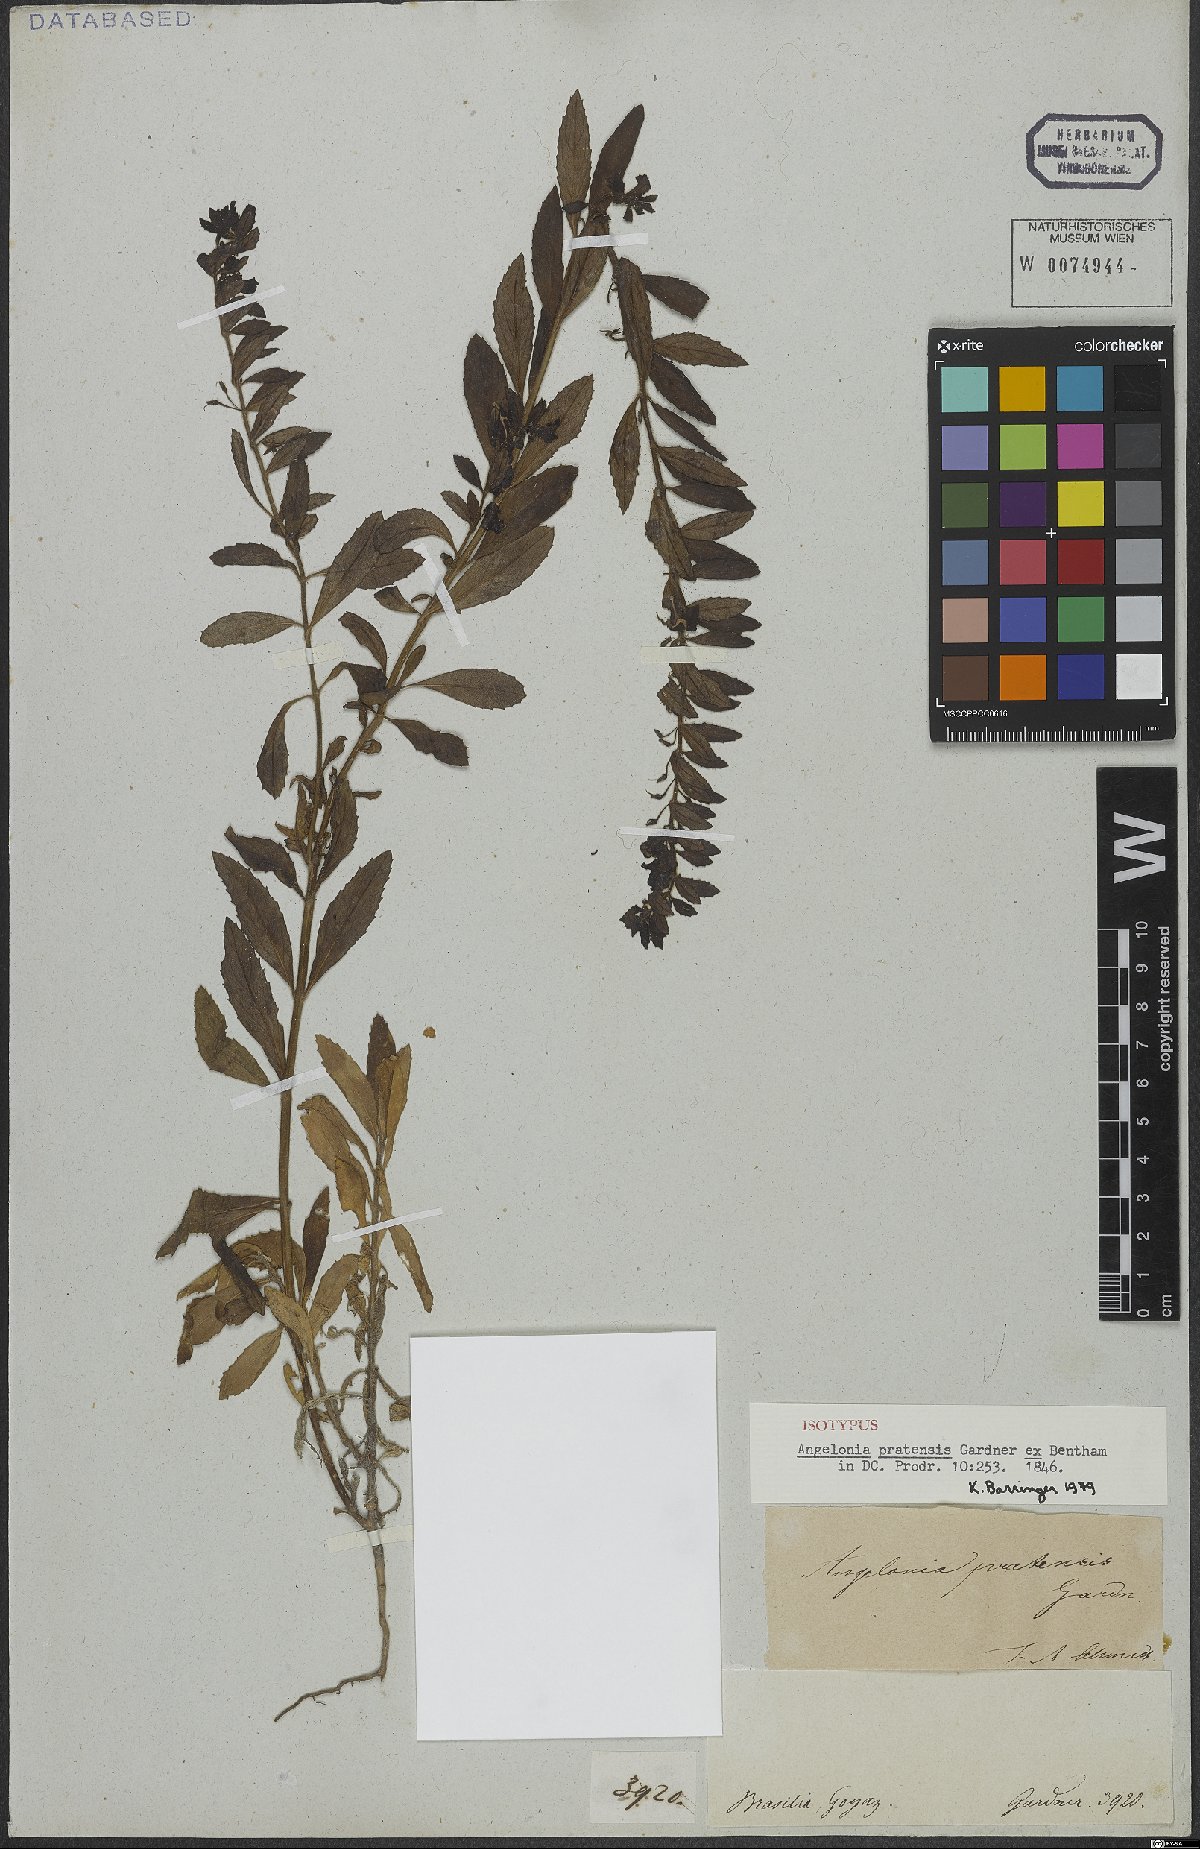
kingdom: Plantae
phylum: Tracheophyta
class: Magnoliopsida
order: Lamiales
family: Plantaginaceae
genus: Angelonia
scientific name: Angelonia pratensis
